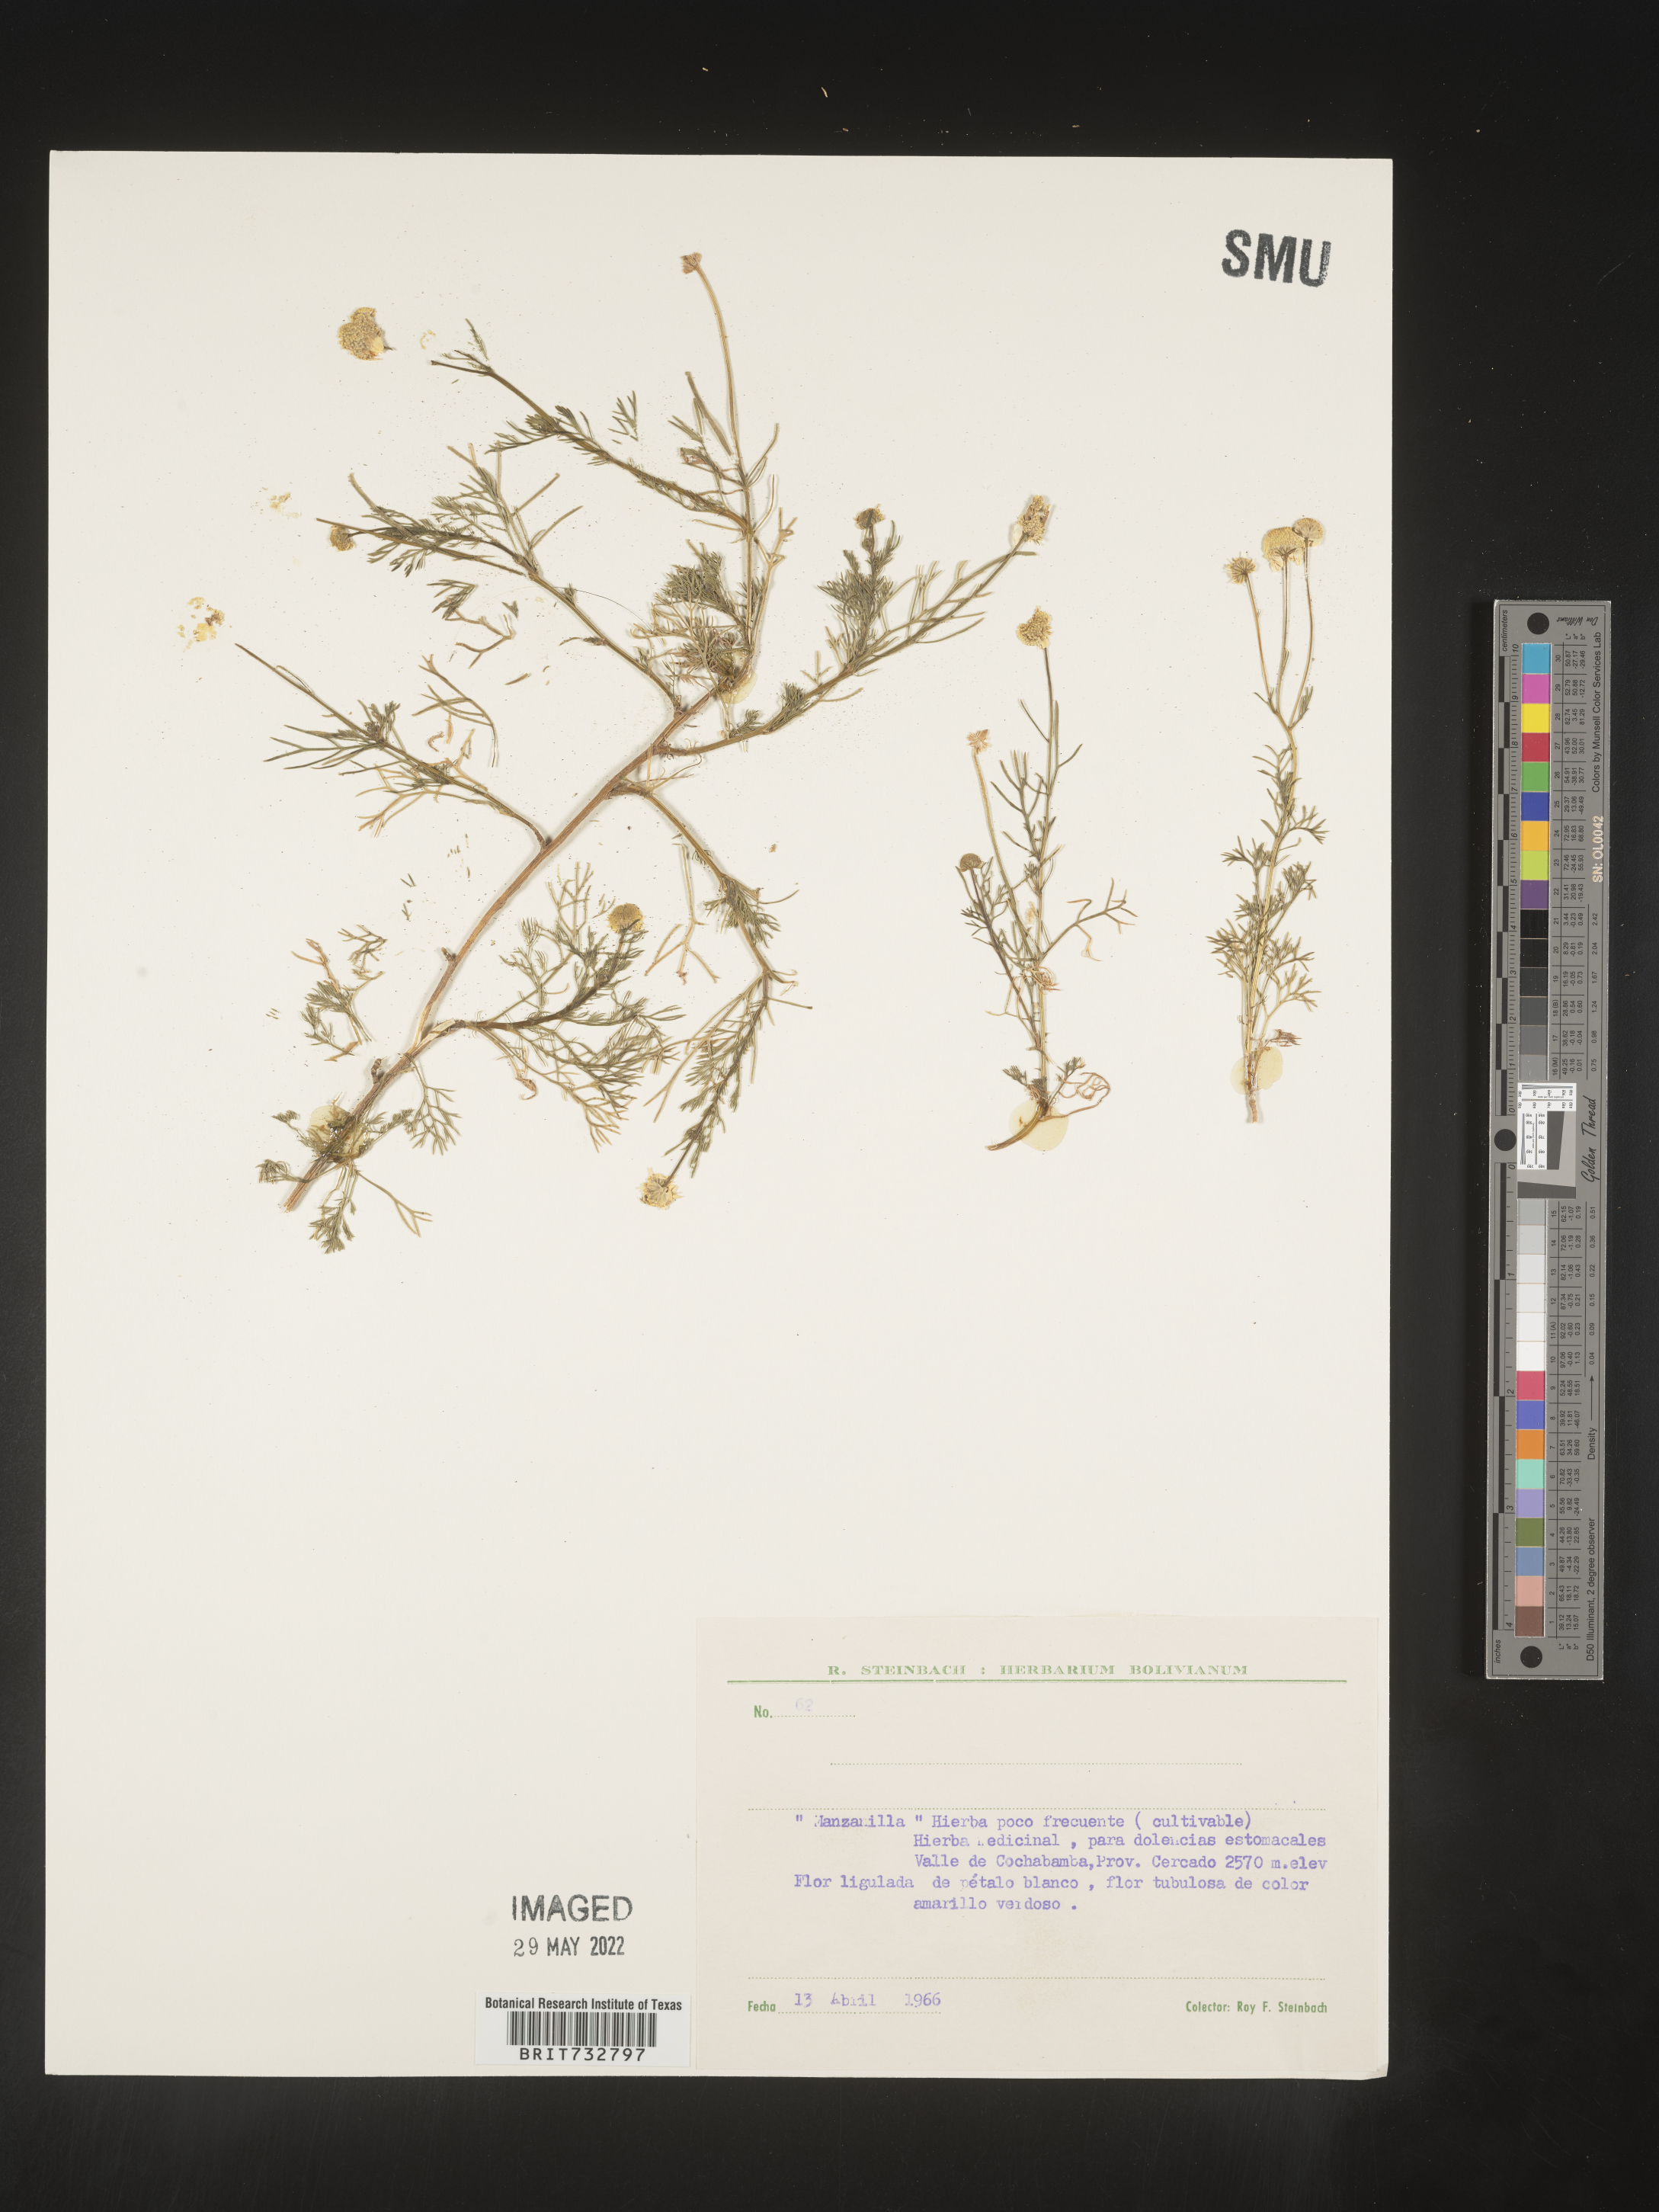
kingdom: Plantae
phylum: Tracheophyta
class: Magnoliopsida
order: Asterales
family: Asteraceae
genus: Matricaria
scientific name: Matricaria
